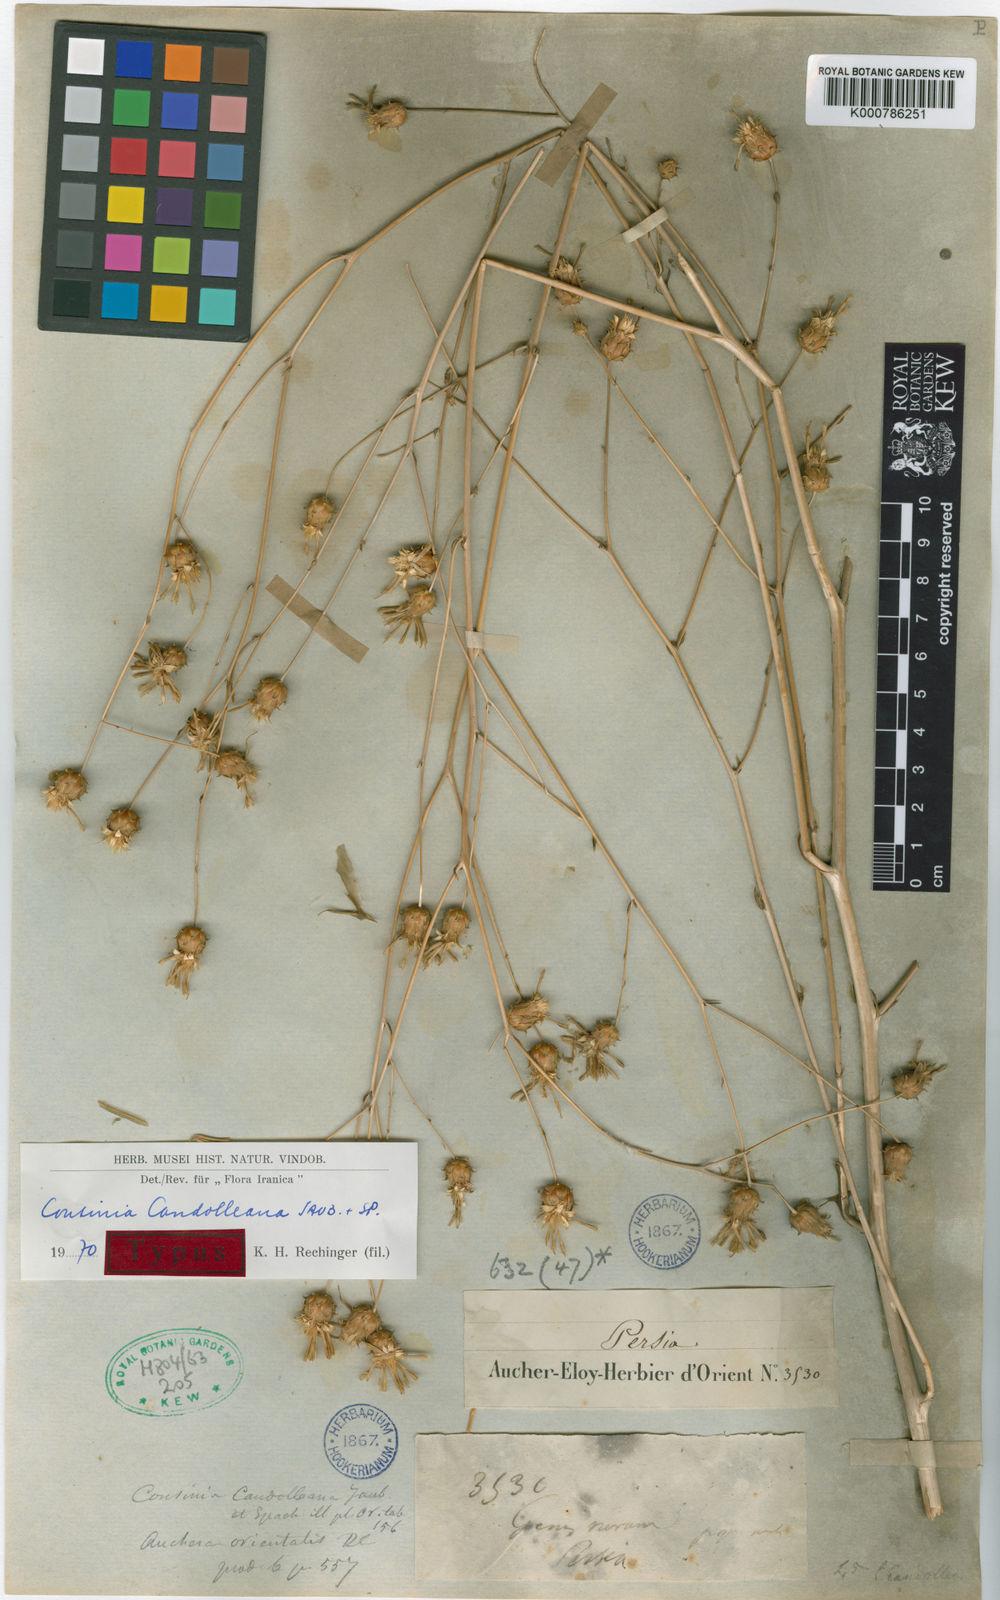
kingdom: Plantae
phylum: Tracheophyta
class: Magnoliopsida
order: Asterales
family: Asteraceae
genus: Cousinia
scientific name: Cousinia candolleana
